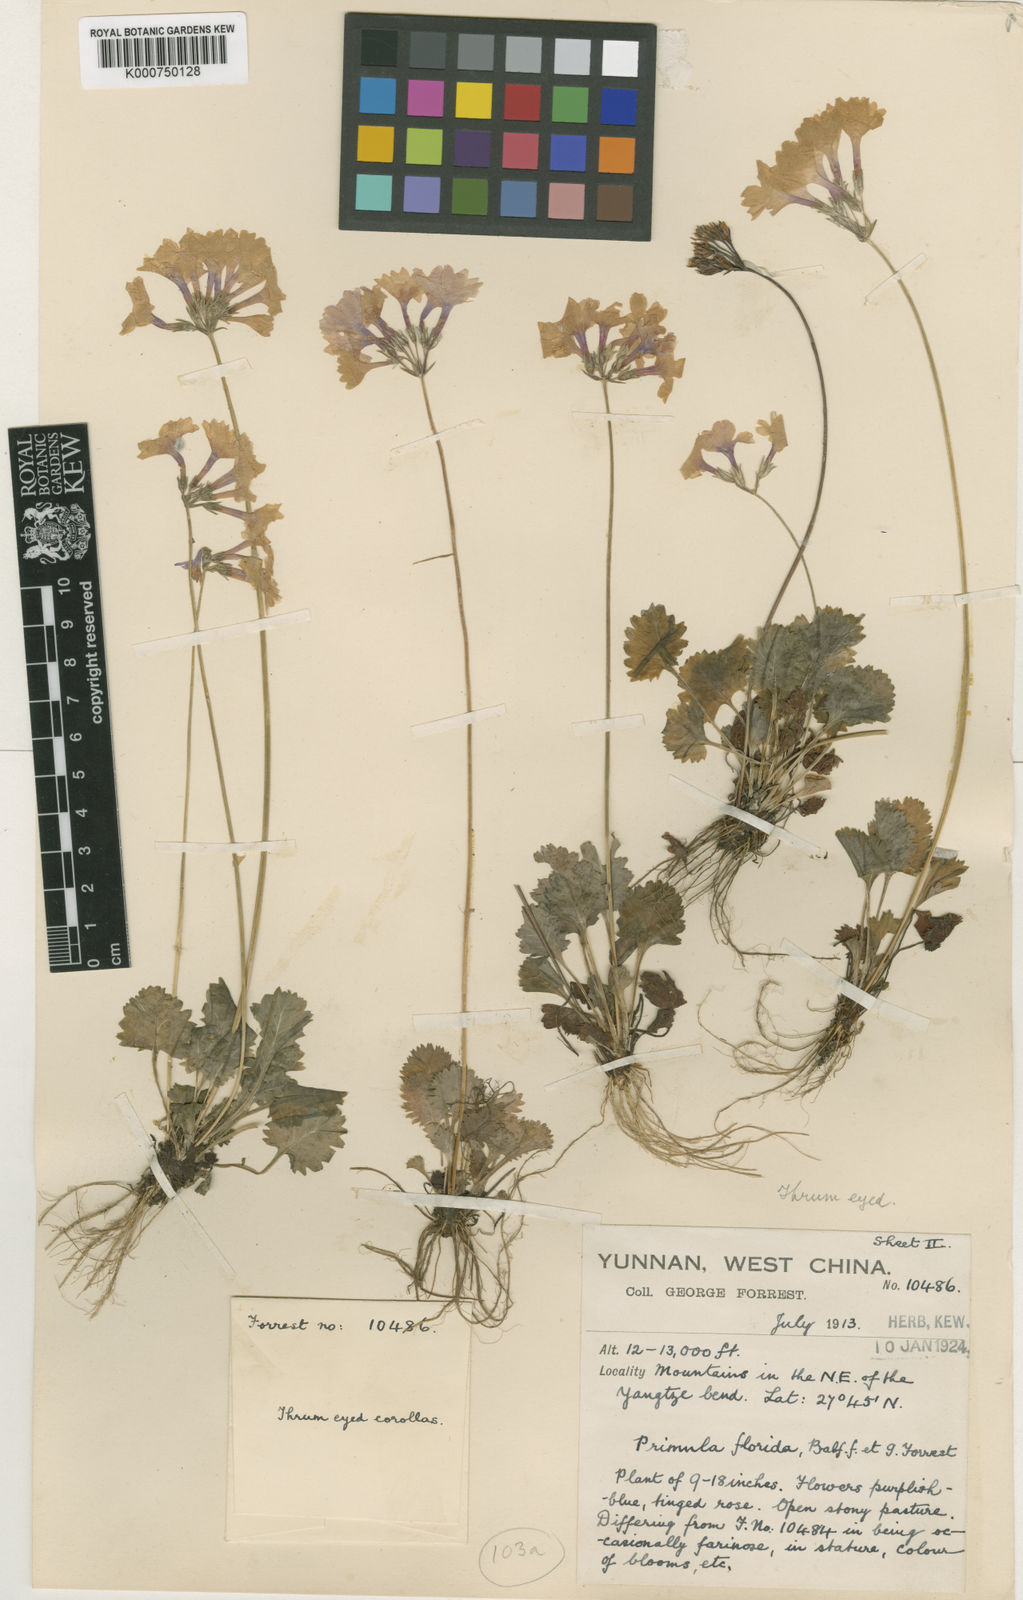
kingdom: Plantae
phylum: Tracheophyta
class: Magnoliopsida
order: Ericales
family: Primulaceae
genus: Primula
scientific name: Primula blinii
